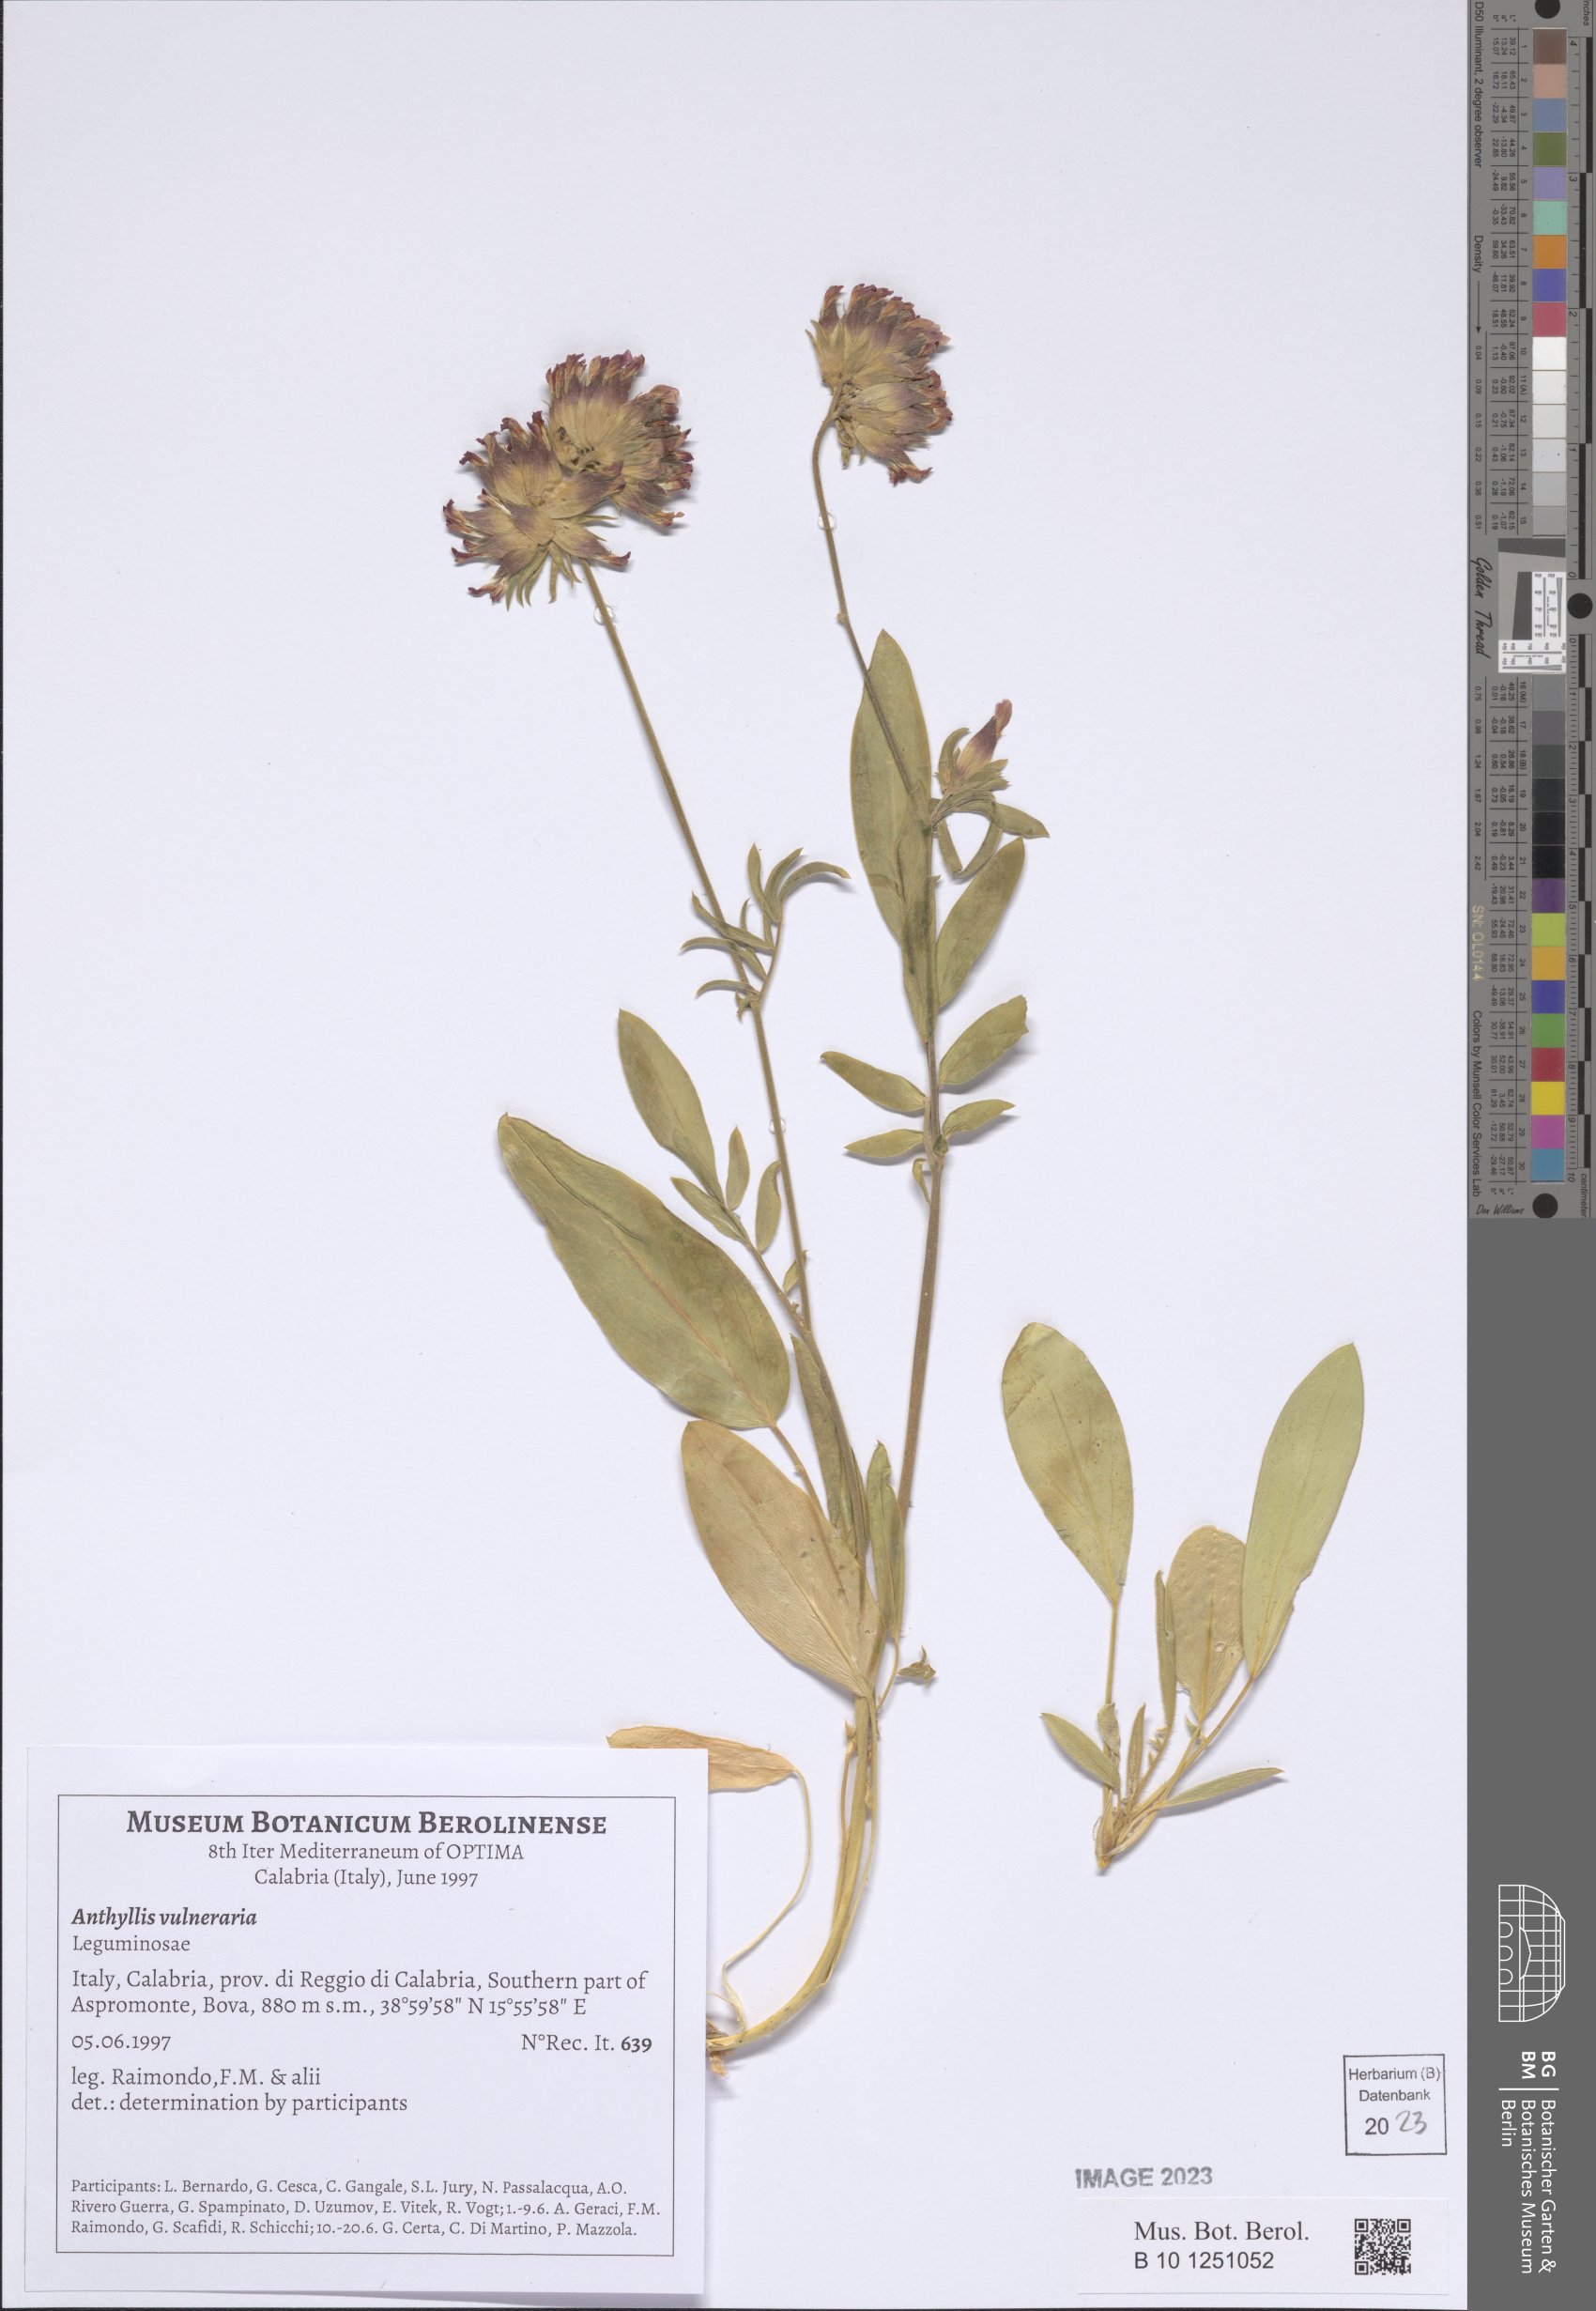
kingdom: Plantae
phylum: Tracheophyta
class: Magnoliopsida
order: Fabales
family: Fabaceae
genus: Anthyllis
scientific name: Anthyllis vulneraria
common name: Kidney vetch
